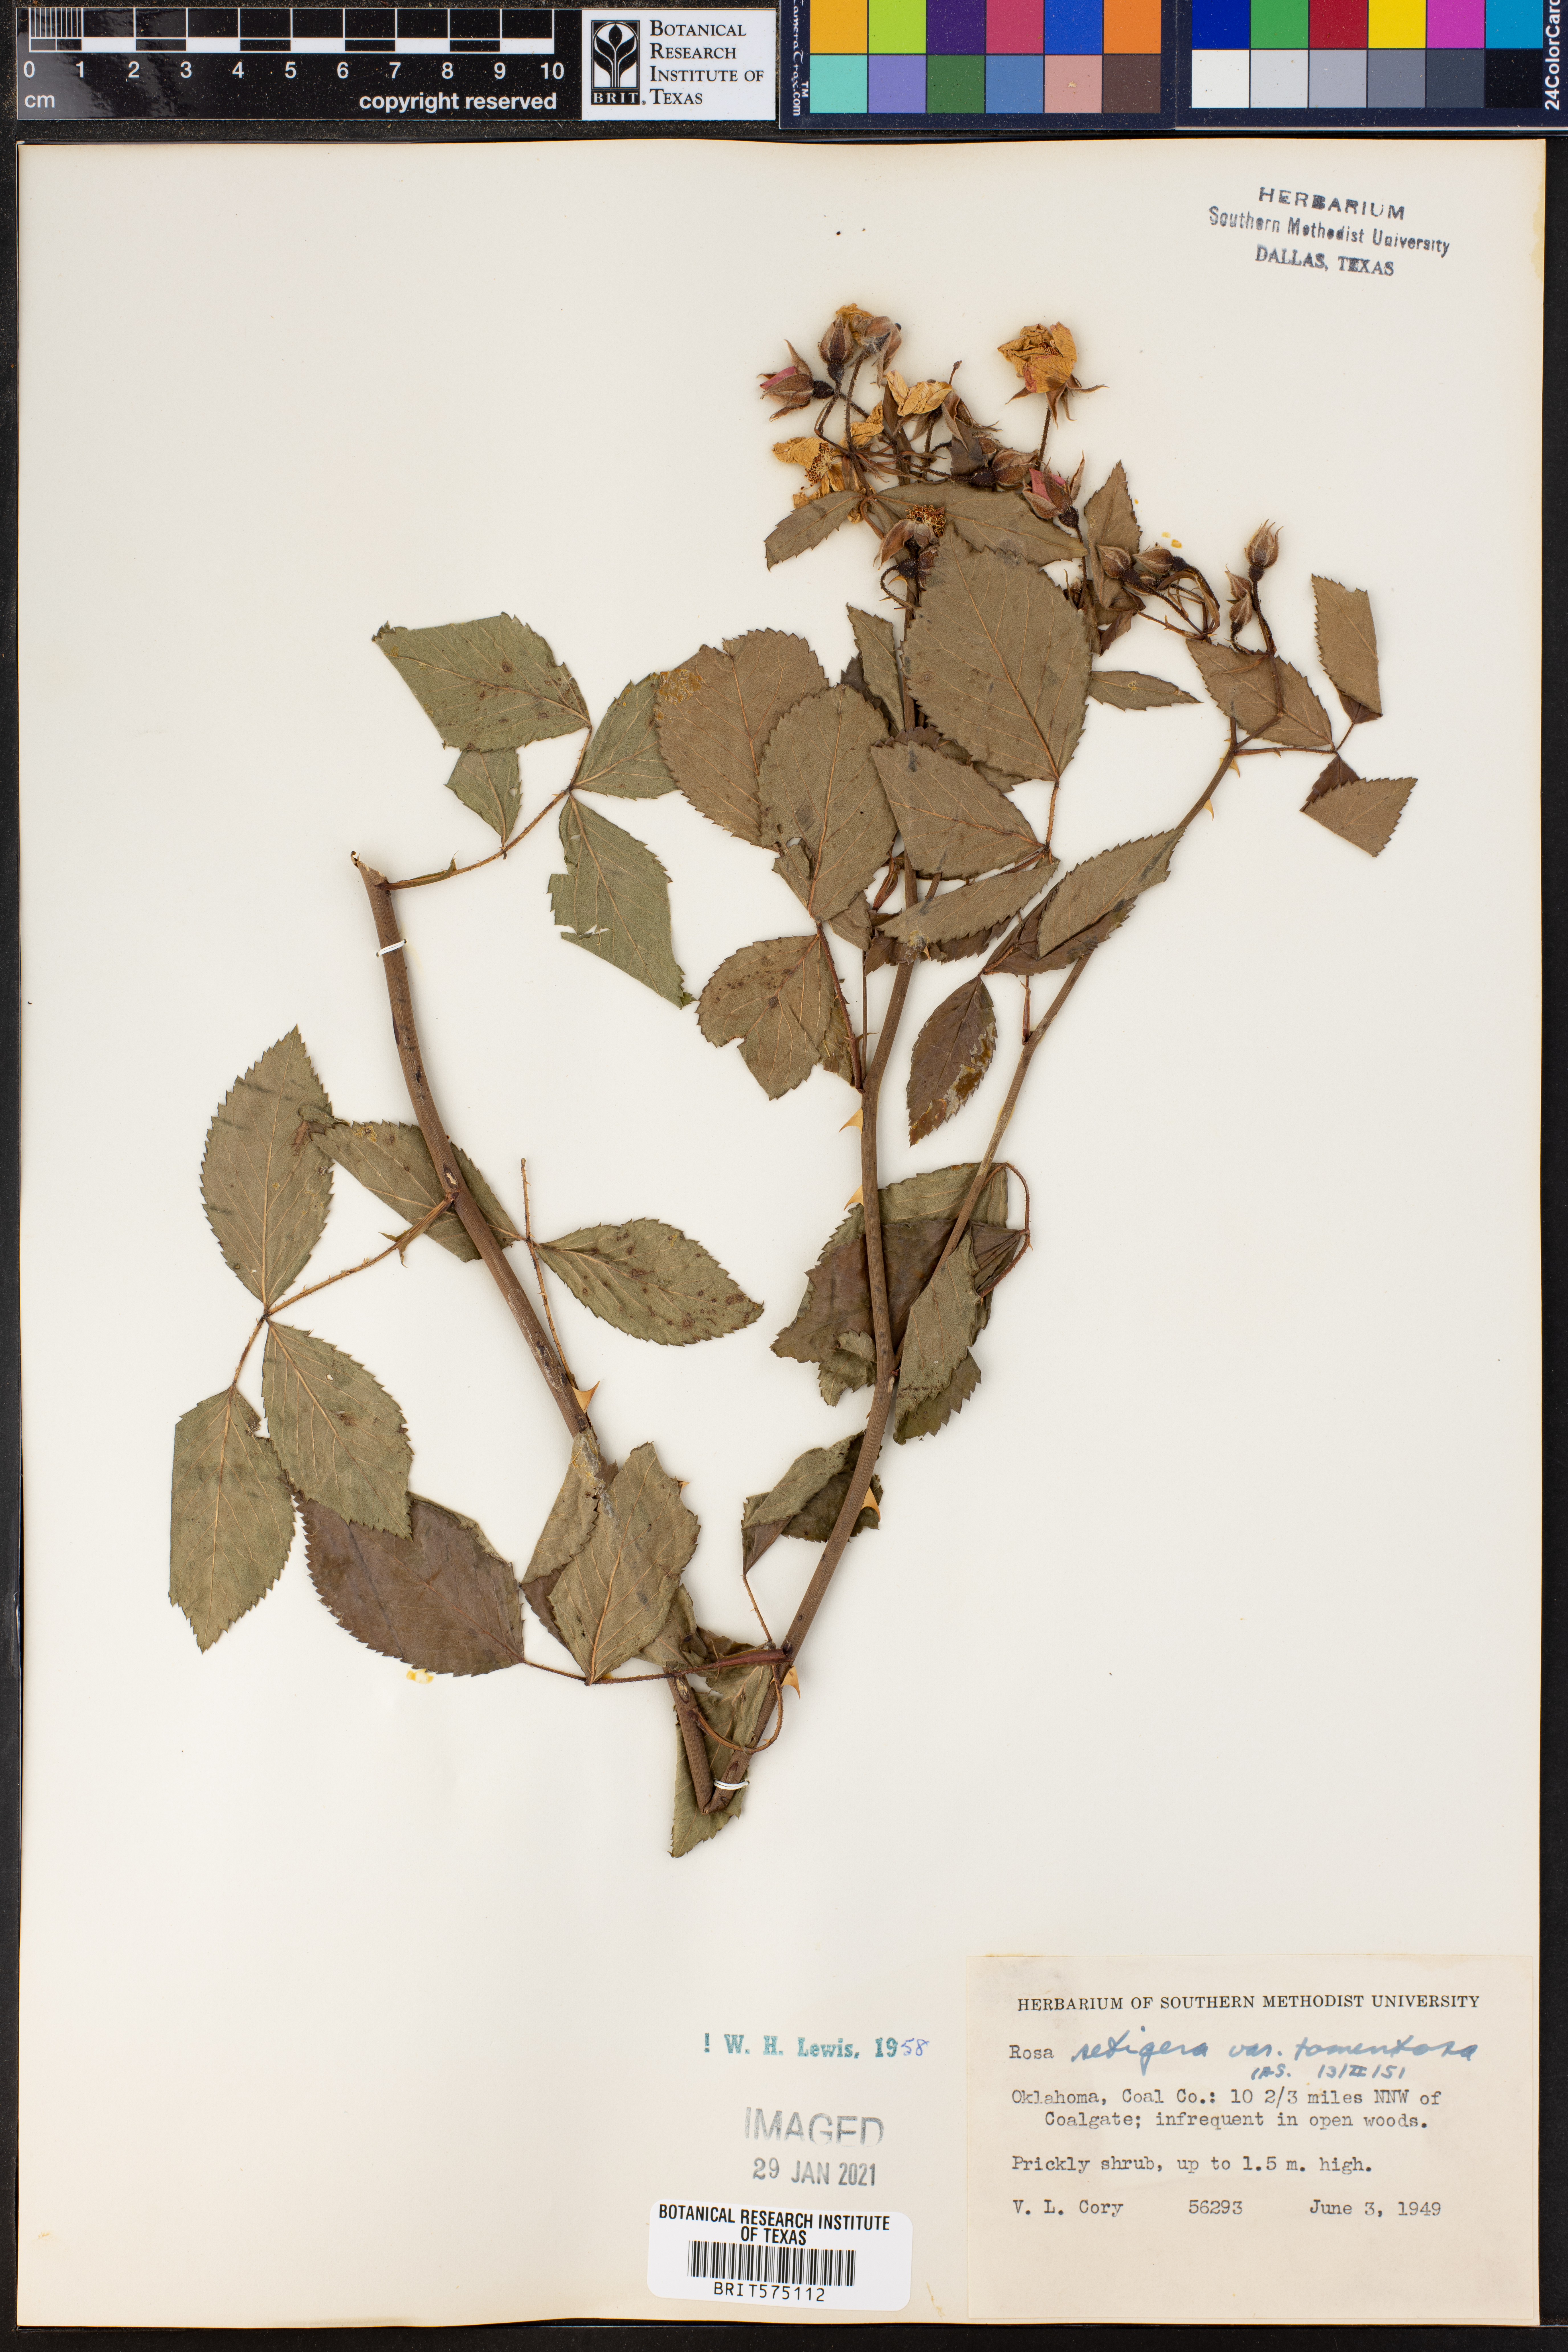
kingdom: Plantae
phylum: Tracheophyta
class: Magnoliopsida
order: Rosales
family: Rosaceae
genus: Rosa
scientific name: Rosa setigera
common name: Prairie rose
